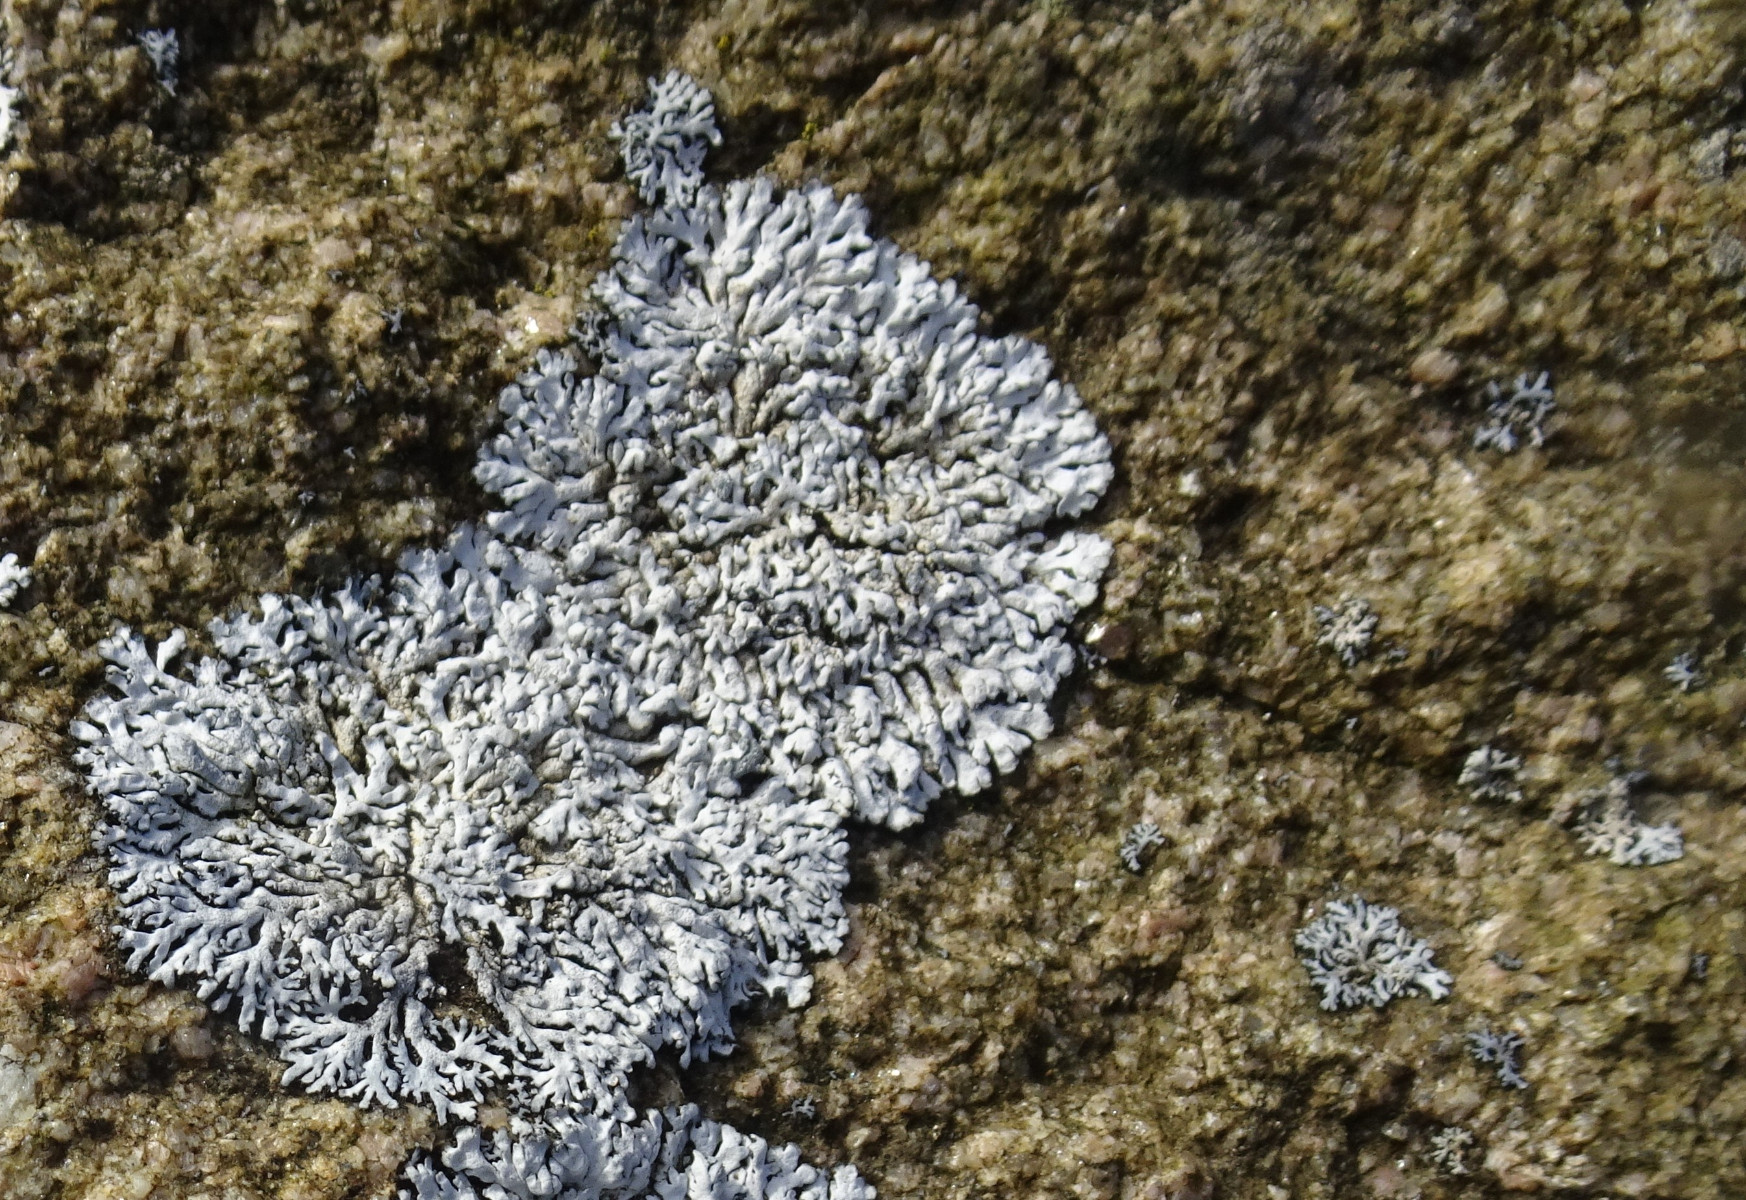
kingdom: Fungi
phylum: Ascomycota
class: Lecanoromycetes
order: Caliciales
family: Physciaceae
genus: Physcia
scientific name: Physcia caesia
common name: blågrå rosetlav
